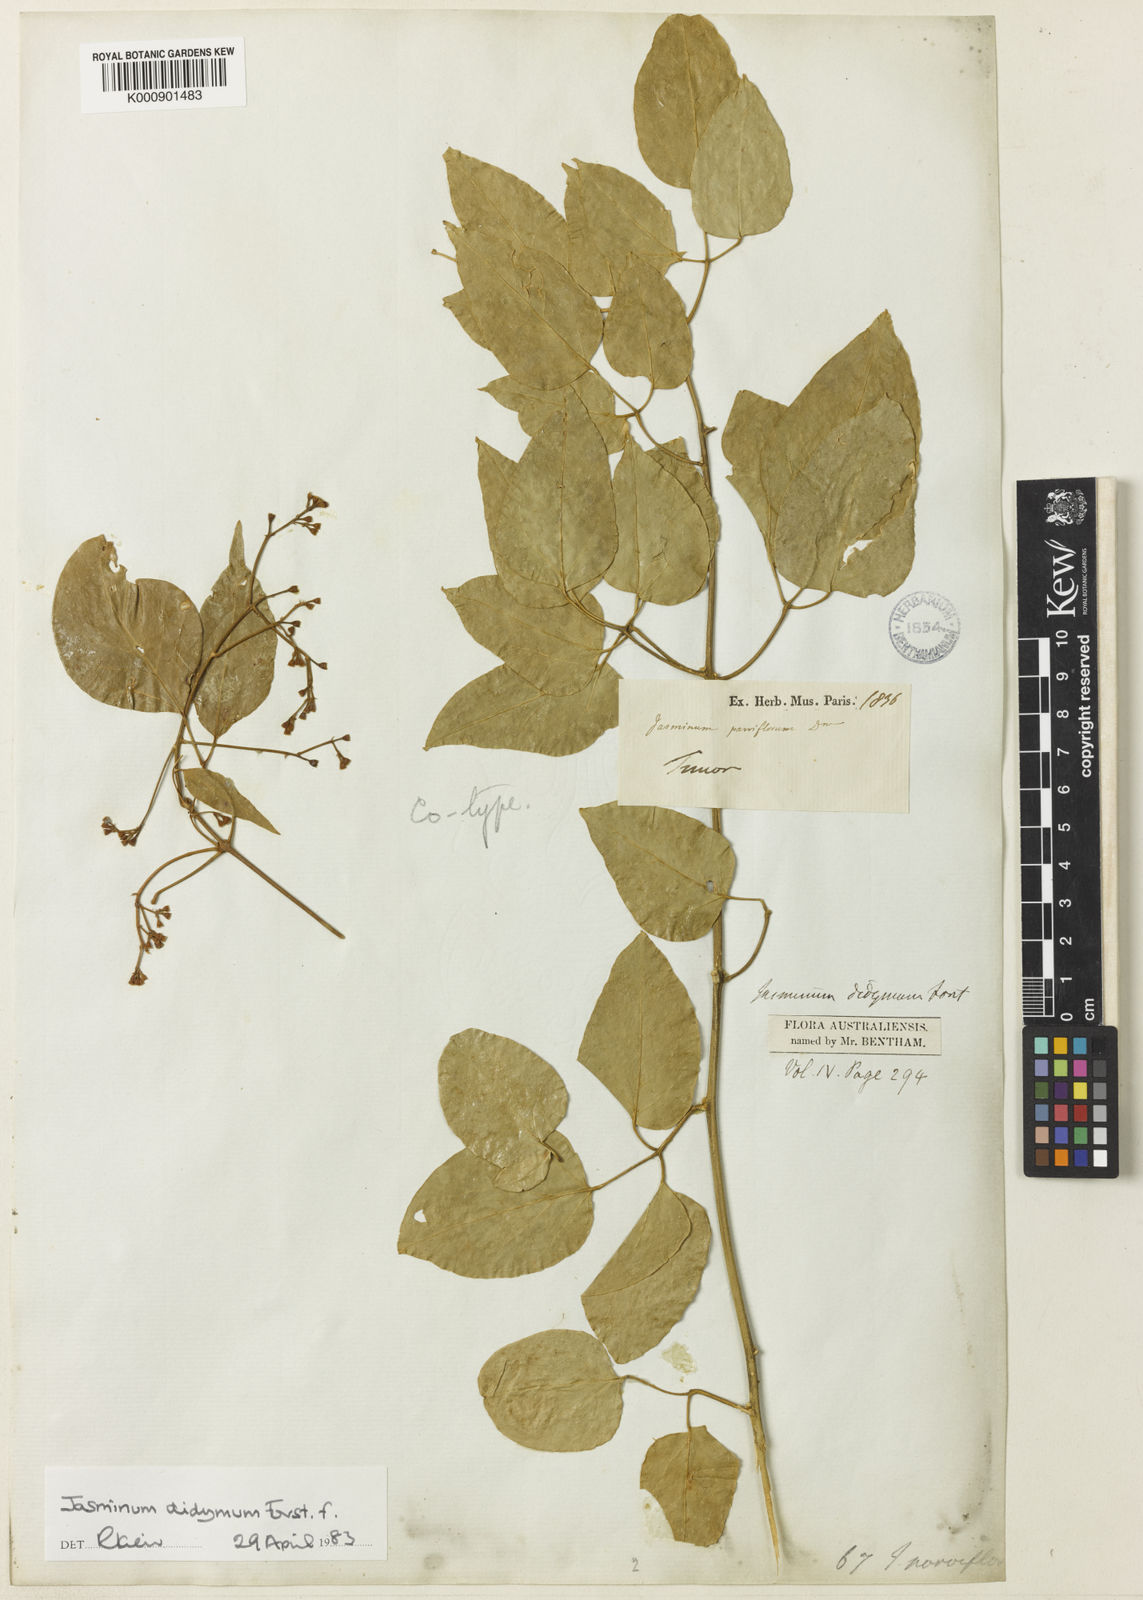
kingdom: Plantae
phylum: Tracheophyta
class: Magnoliopsida
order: Lamiales
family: Oleaceae
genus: Jasminum
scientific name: Jasminum didymum
